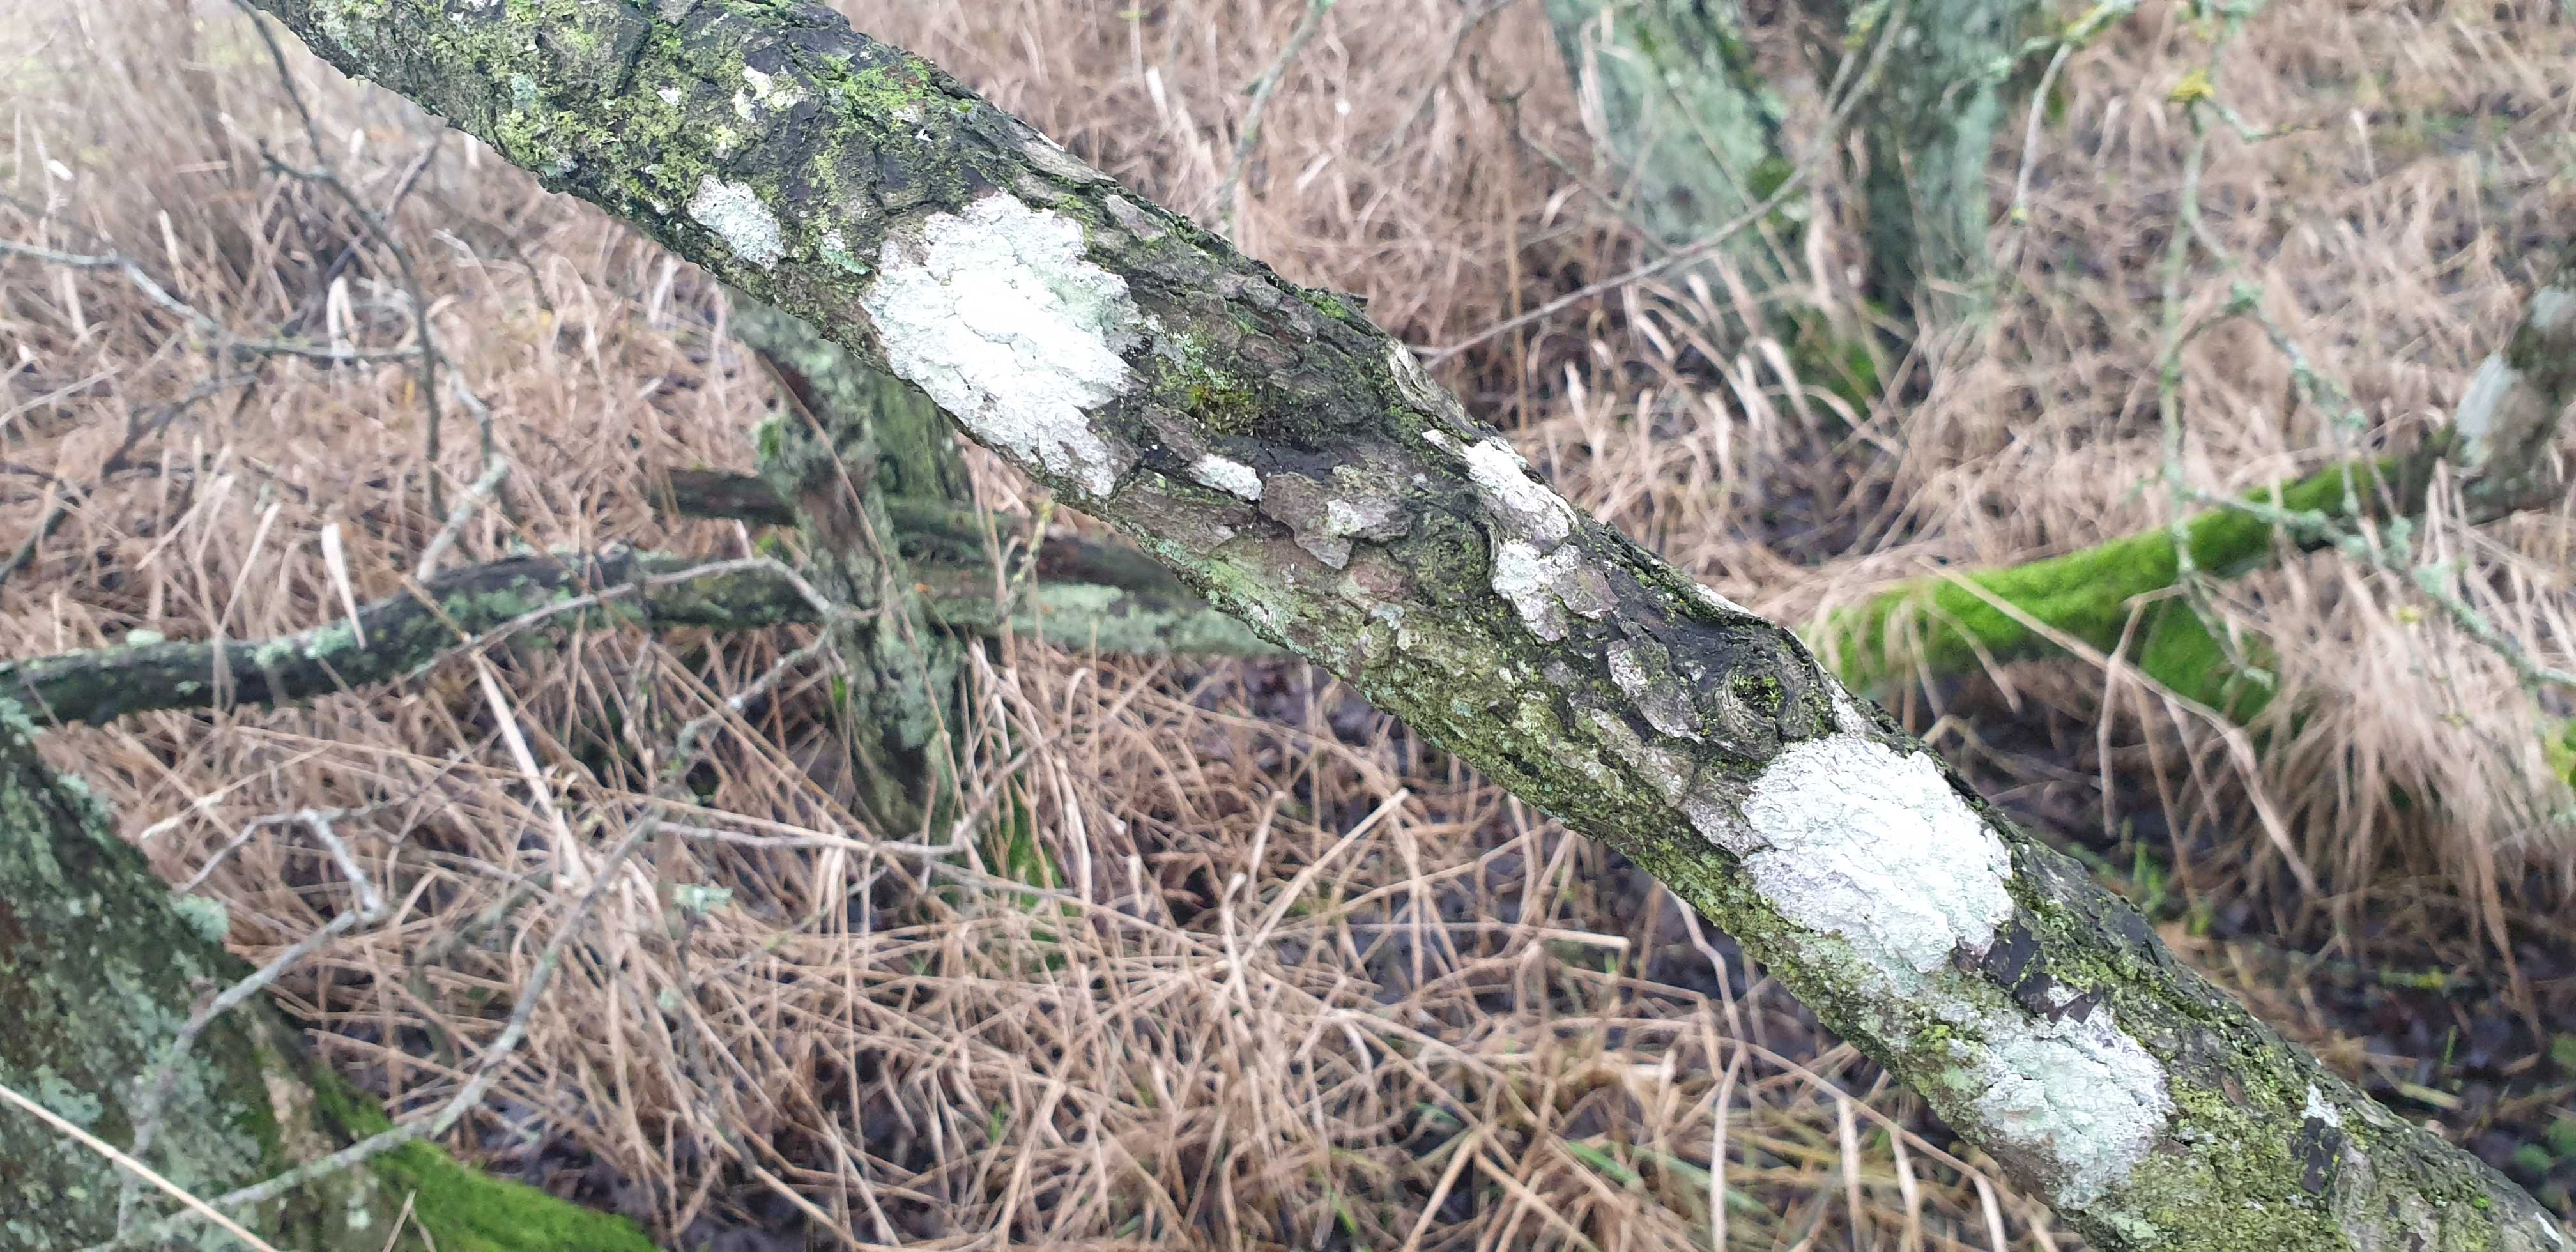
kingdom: Fungi
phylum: Ascomycota
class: Lecanoromycetes
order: Ostropales
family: Phlyctidaceae
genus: Phlyctis
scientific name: Phlyctis argena
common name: almindelig sølvlav
